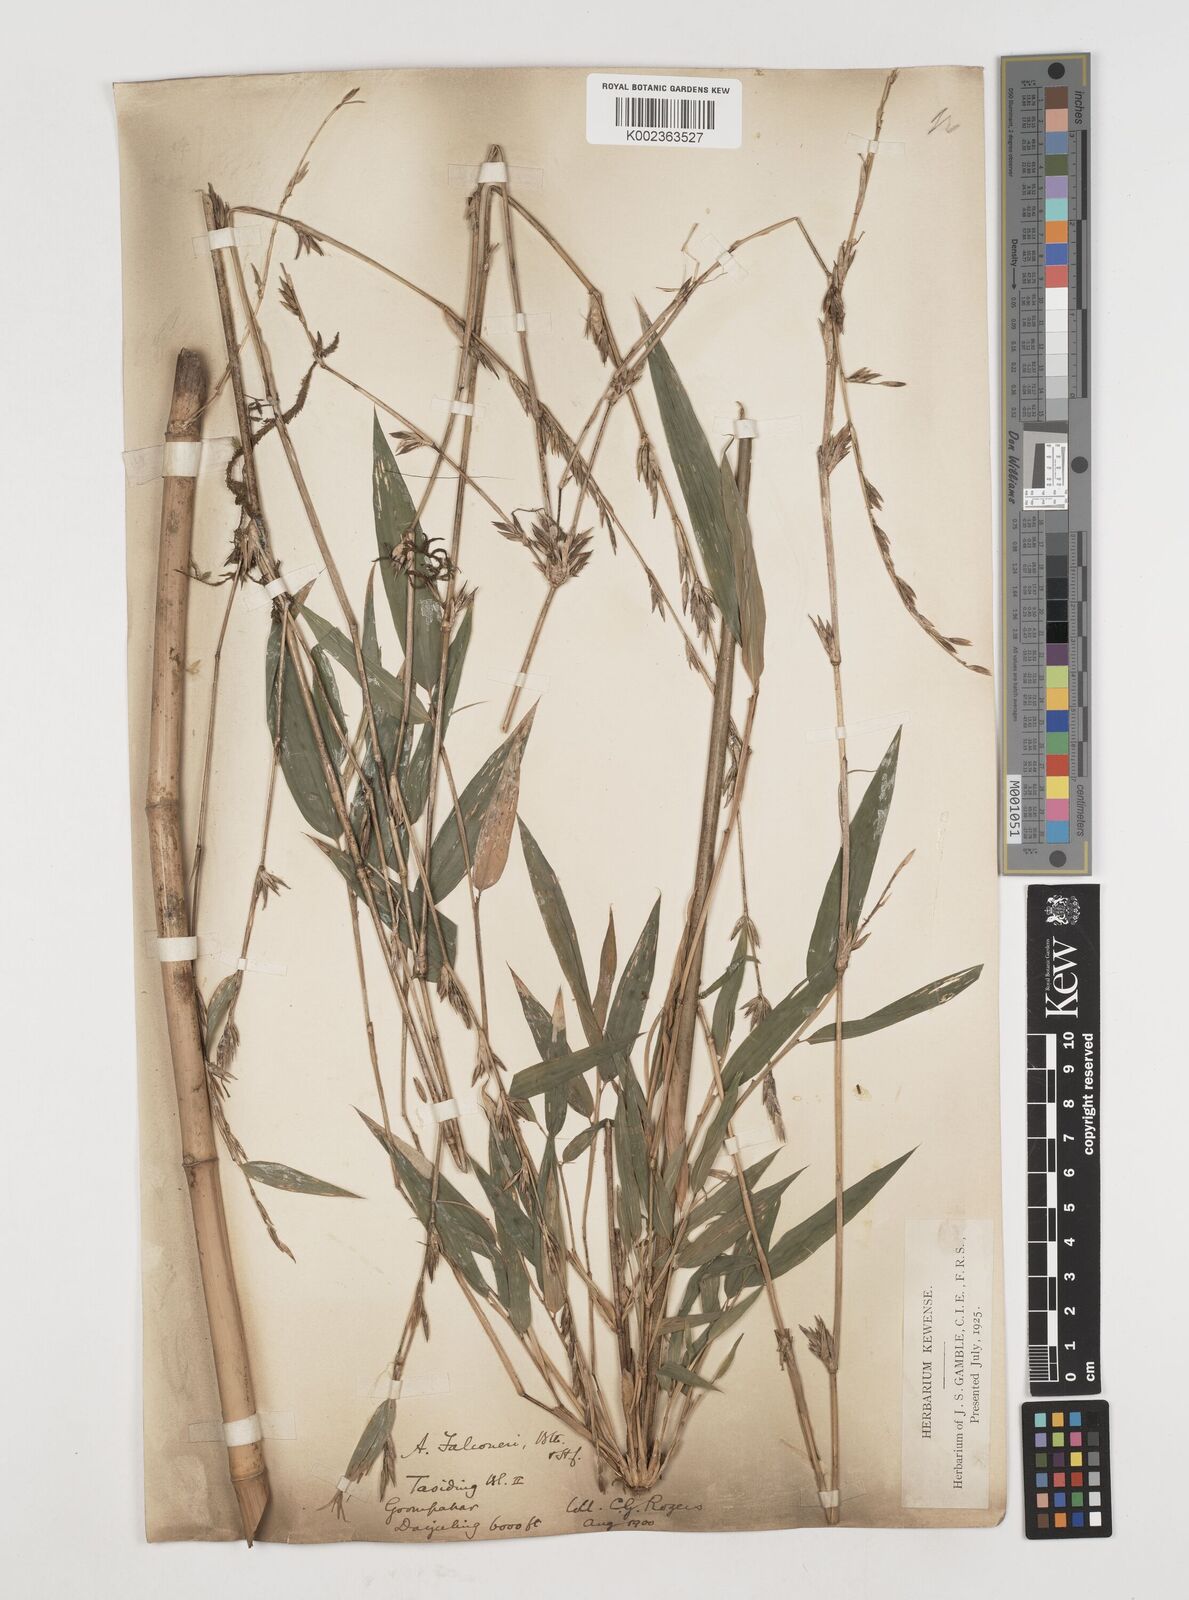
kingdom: Plantae
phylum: Tracheophyta
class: Liliopsida
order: Poales
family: Poaceae
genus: Himalayacalamus
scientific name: Himalayacalamus falconeri
